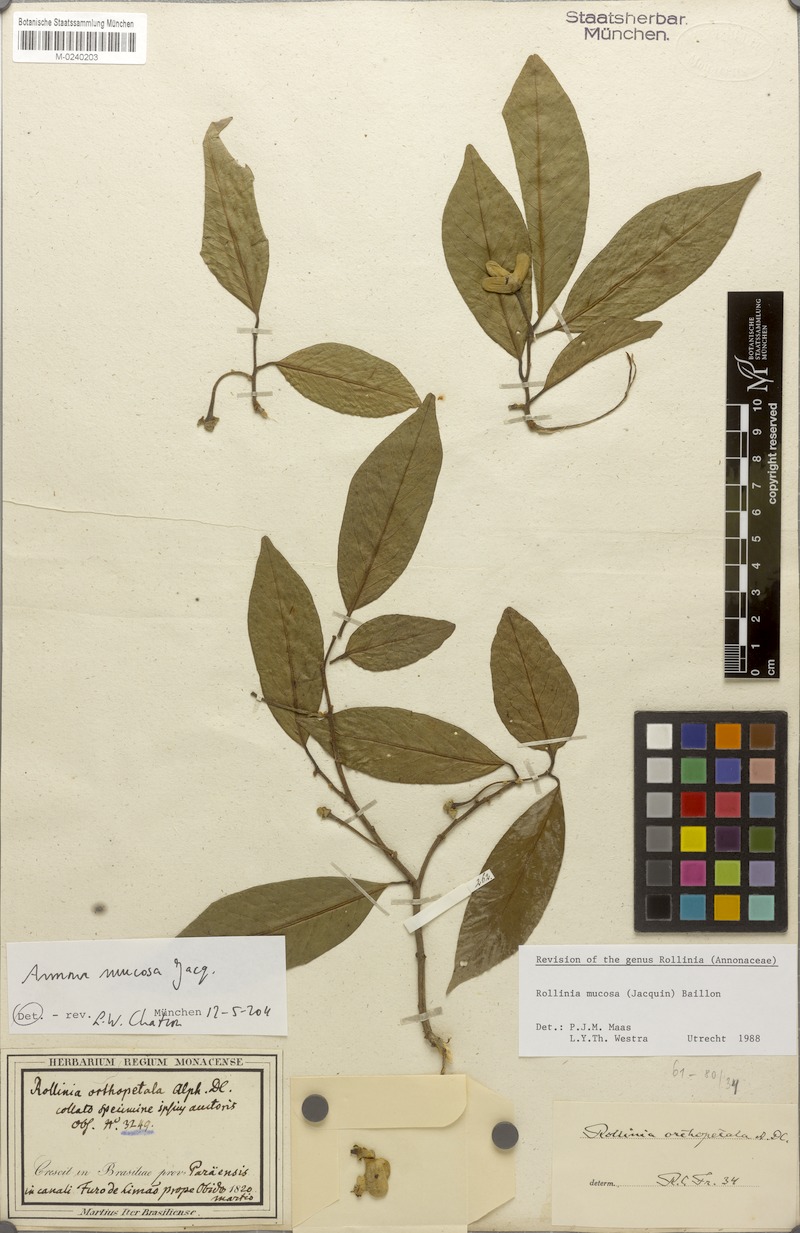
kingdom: Plantae
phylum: Tracheophyta
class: Magnoliopsida
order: Magnoliales
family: Annonaceae
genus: Annona
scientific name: Annona mucosa
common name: Sugar apple
